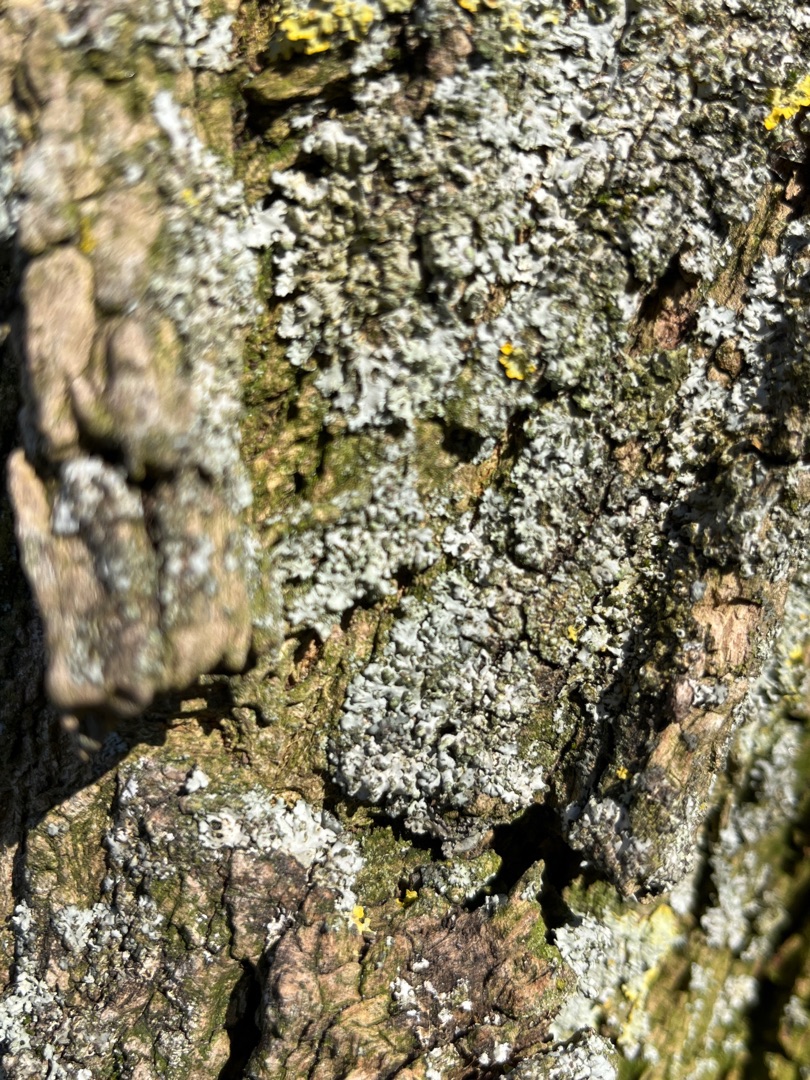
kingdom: Fungi
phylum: Ascomycota
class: Lecanoromycetes
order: Caliciales
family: Physciaceae
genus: Phaeophyscia
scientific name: Phaeophyscia orbicularis
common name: Grågrøn rosetlav
